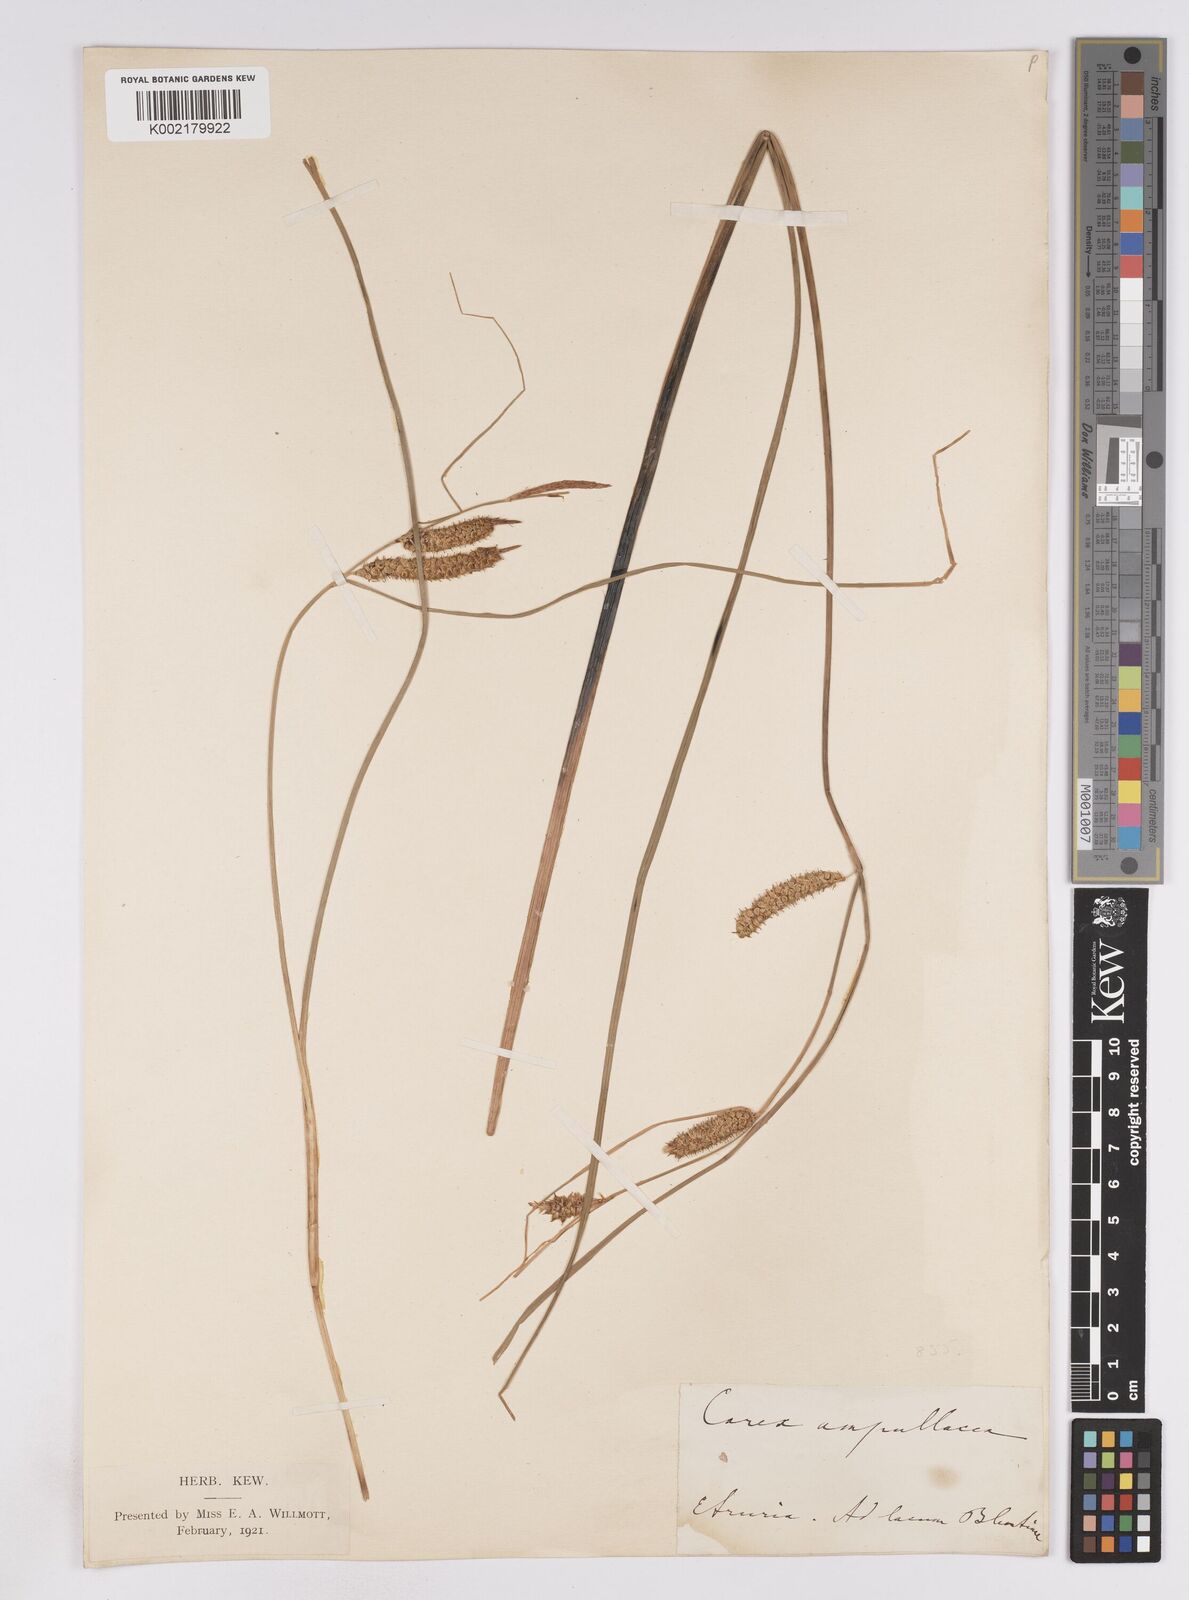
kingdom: Plantae
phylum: Tracheophyta
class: Liliopsida
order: Poales
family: Cyperaceae
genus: Carex
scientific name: Carex rostrata
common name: Bottle sedge
